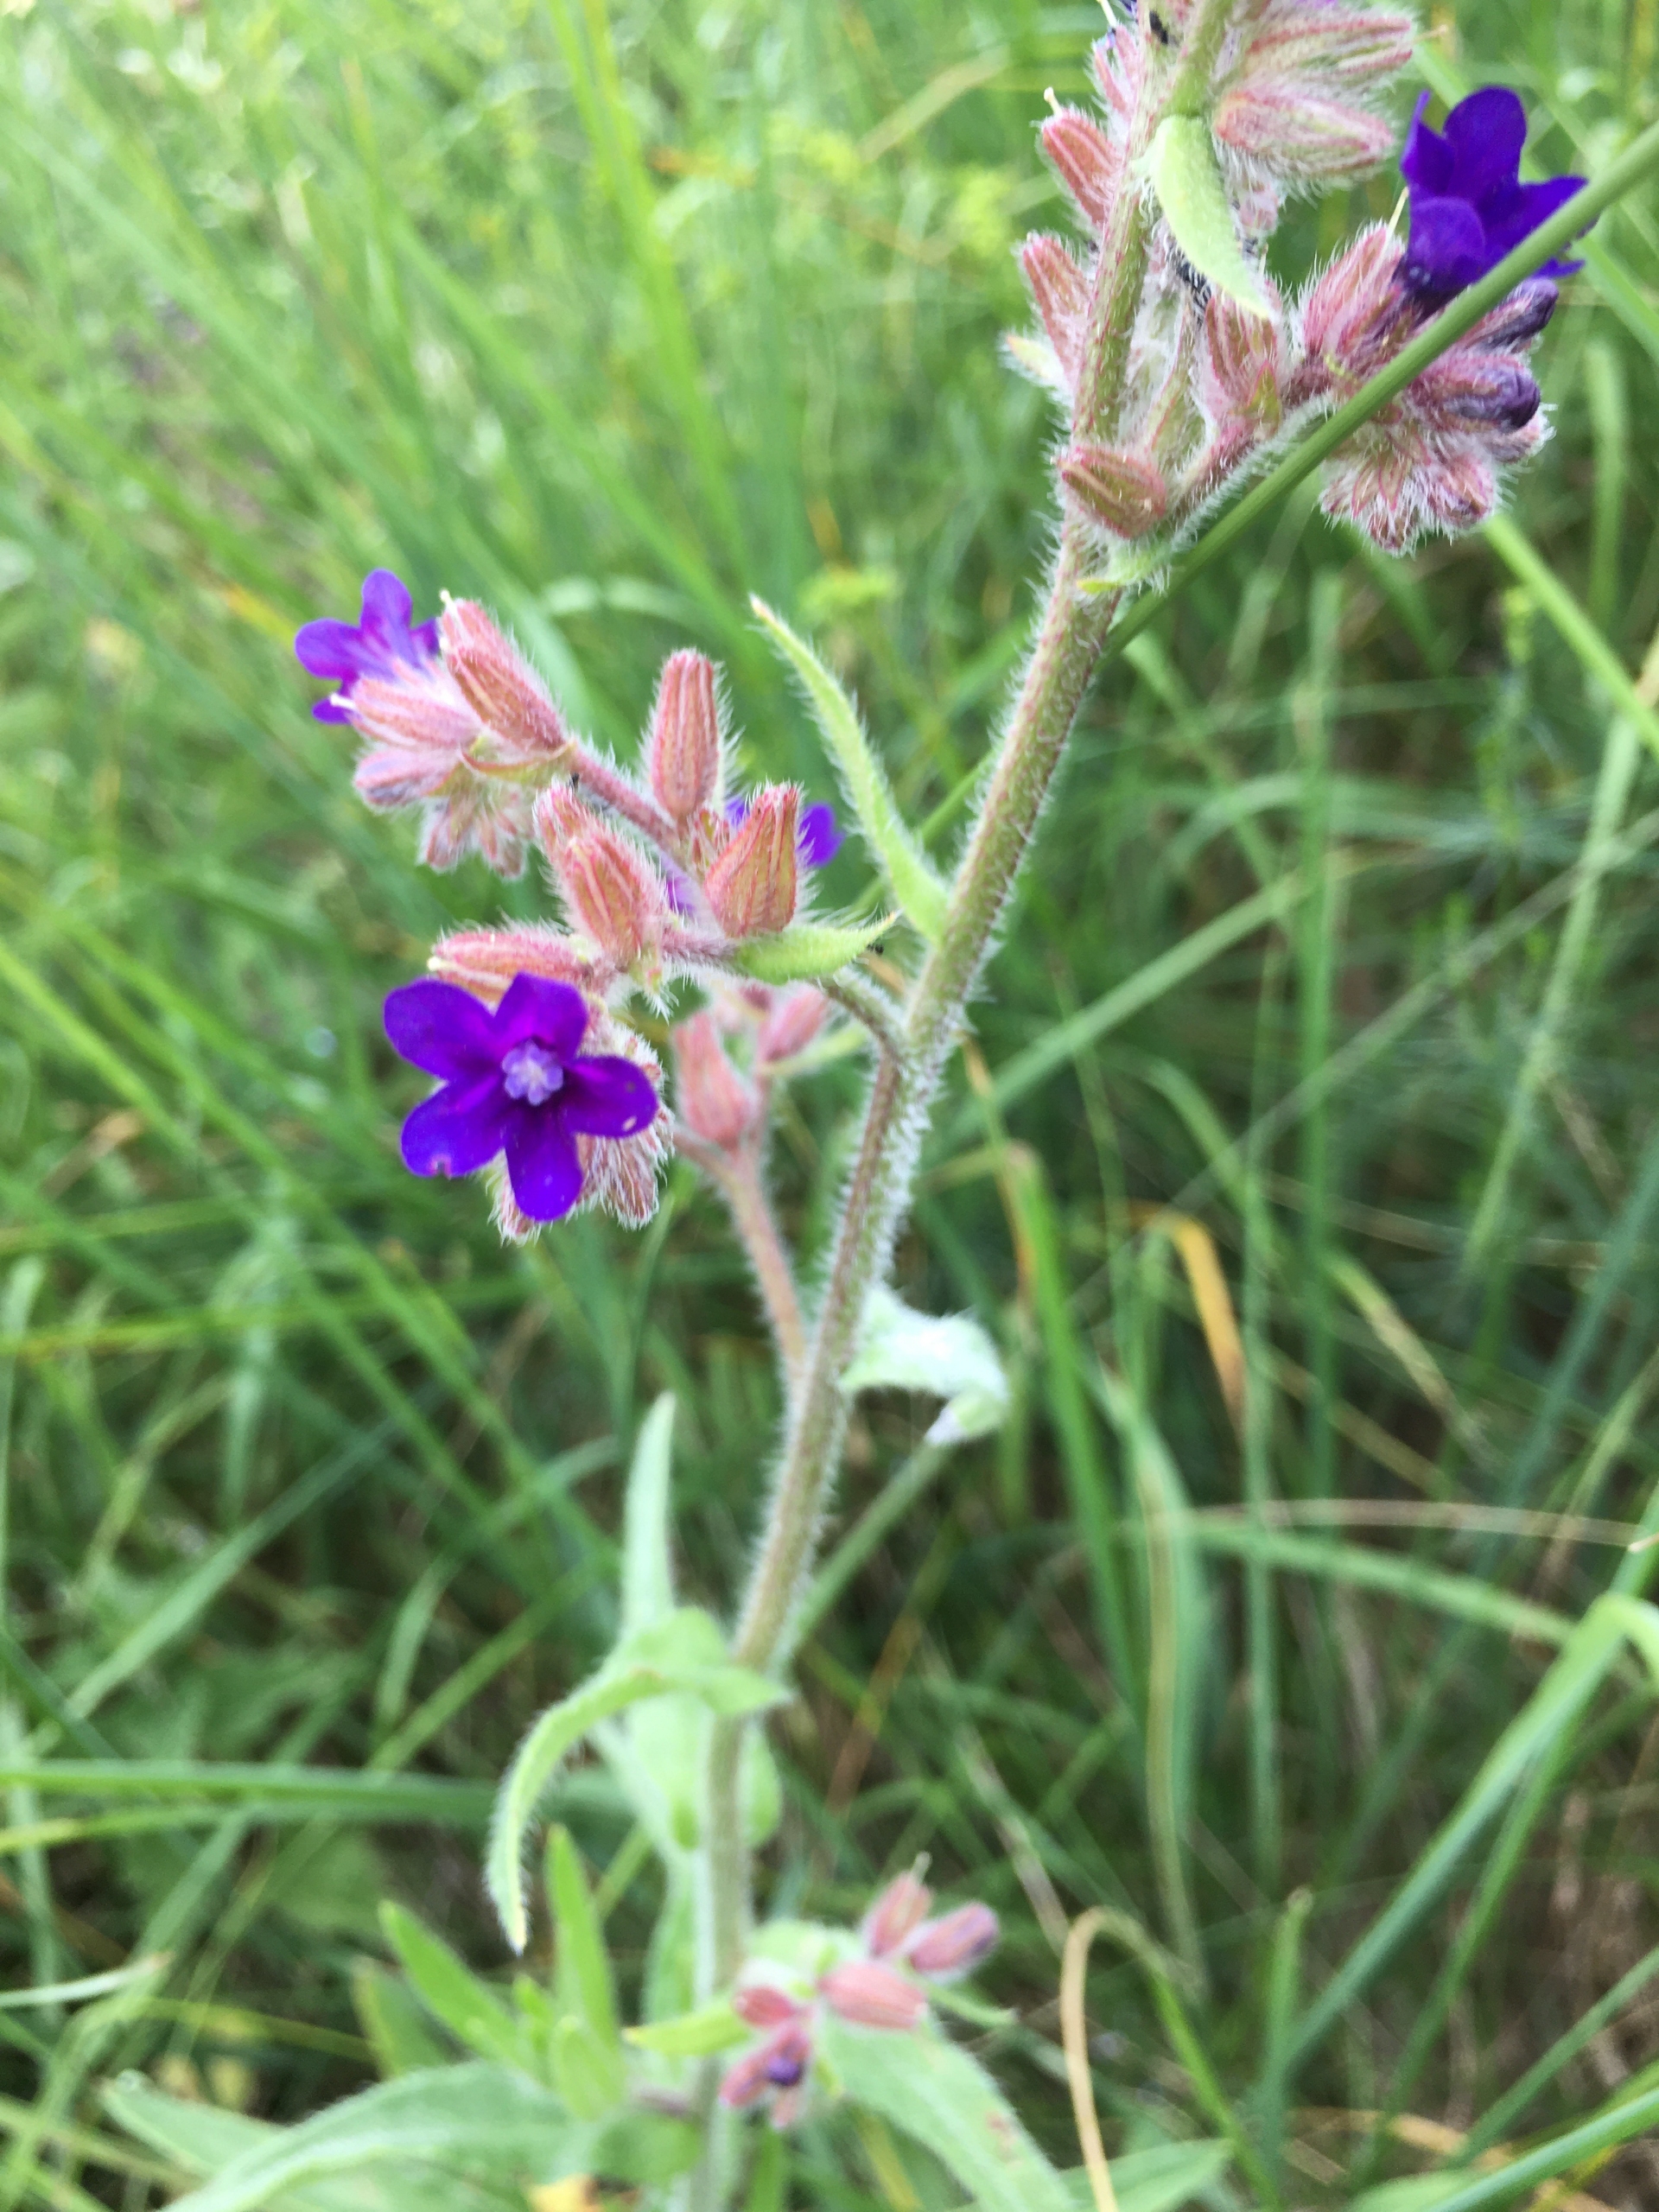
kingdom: Plantae
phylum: Tracheophyta
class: Magnoliopsida
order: Boraginales
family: Boraginaceae
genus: Anchusa
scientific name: Anchusa officinalis
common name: Læge-oksetunge
